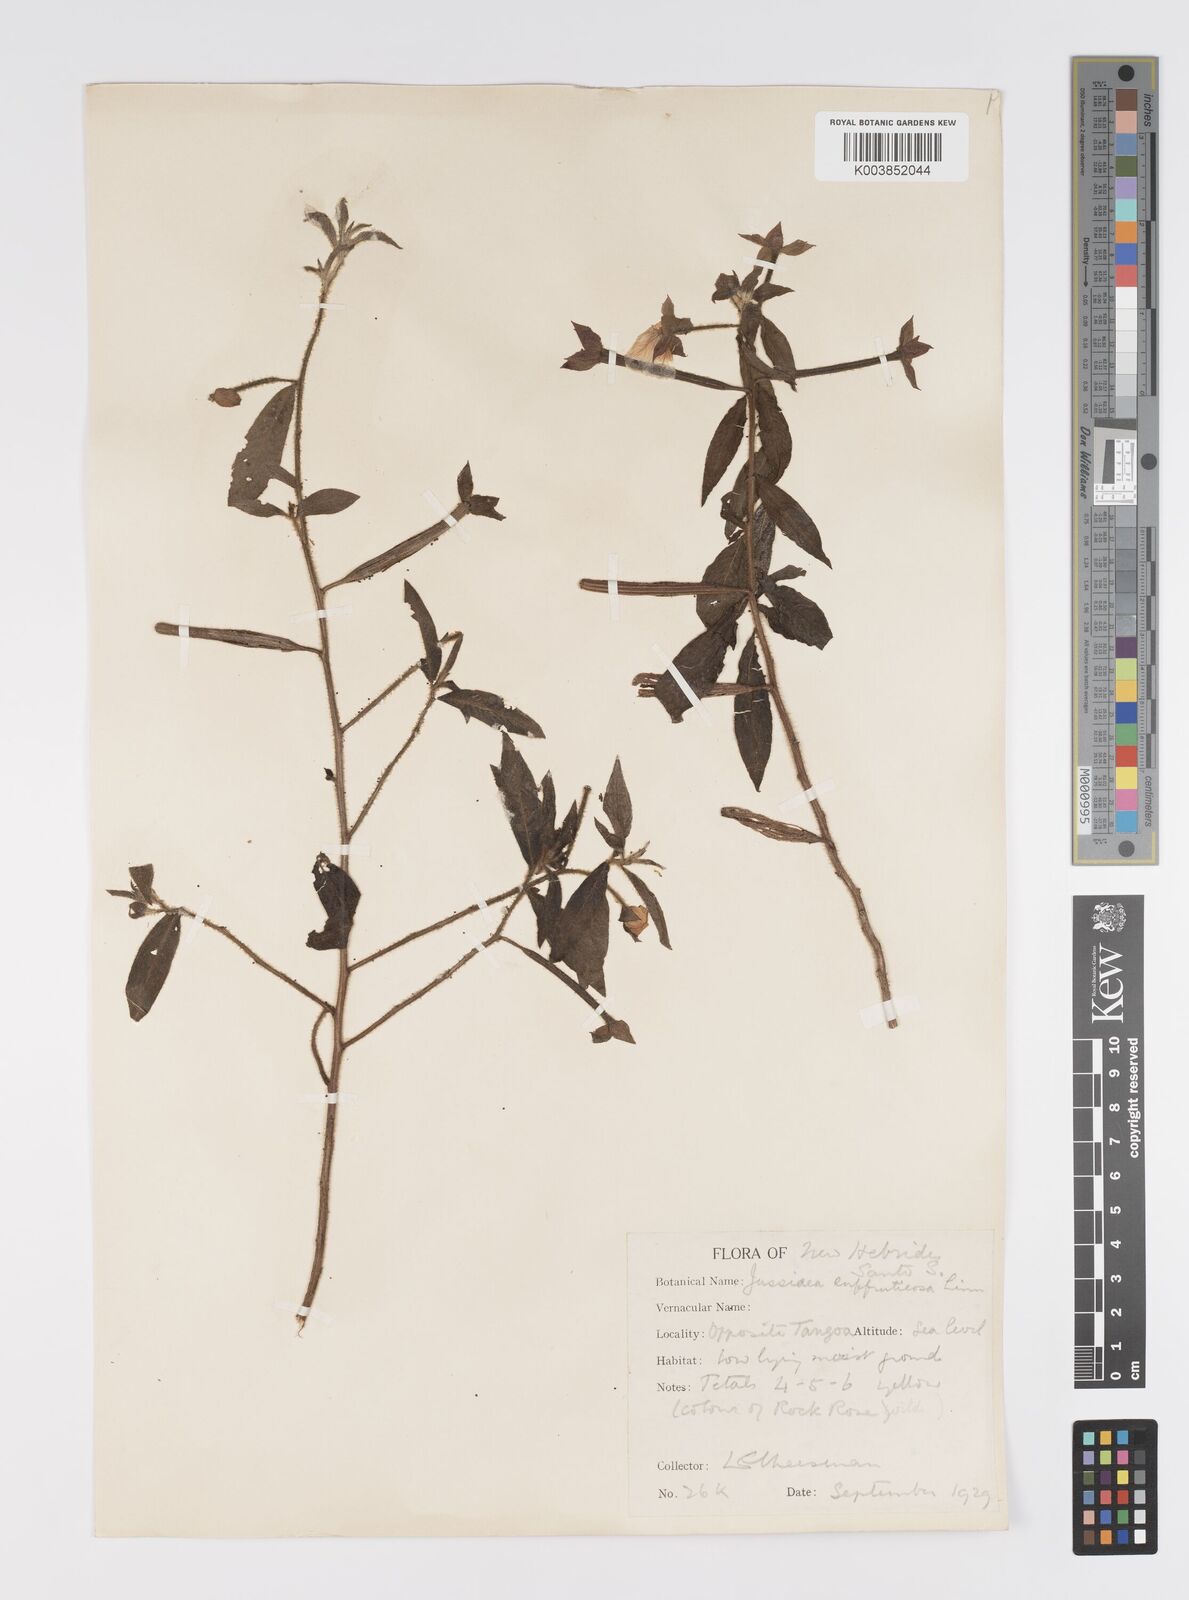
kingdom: Plantae
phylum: Tracheophyta
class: Magnoliopsida
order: Myrtales
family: Onagraceae
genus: Ludwigia
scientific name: Ludwigia octovalvis
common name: Water-primrose
